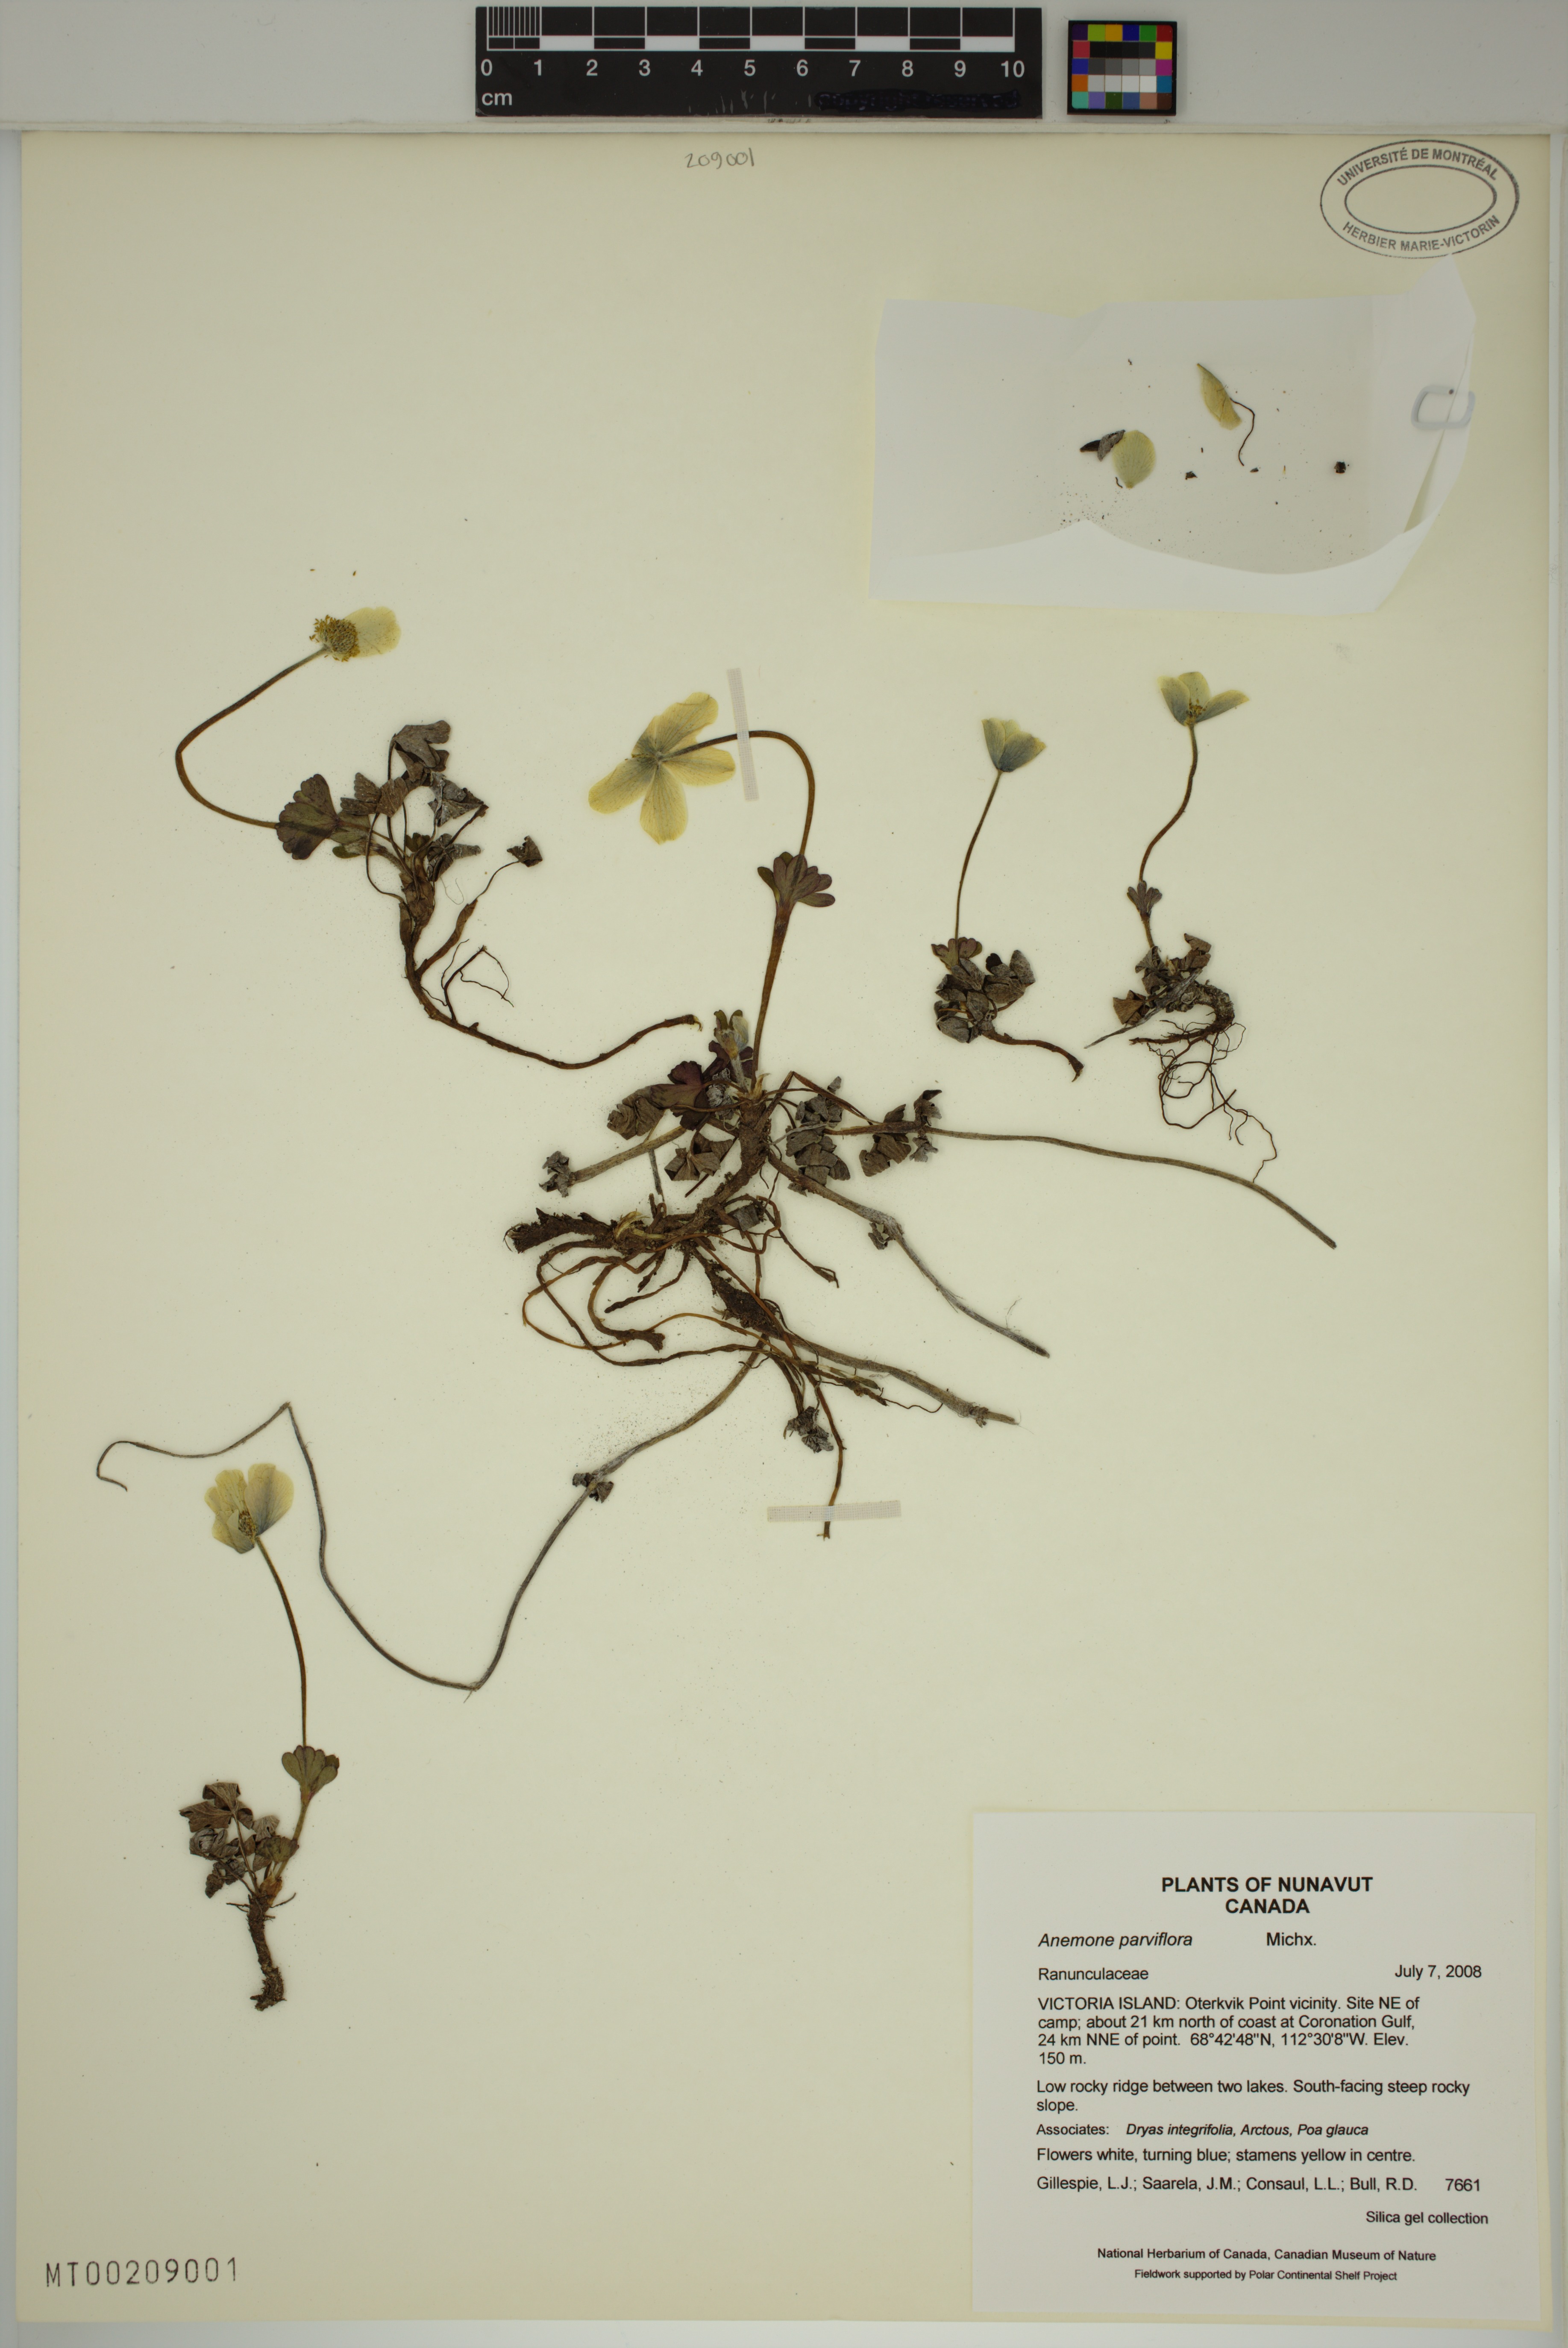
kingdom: Plantae
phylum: Tracheophyta
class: Magnoliopsida
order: Ranunculales
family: Ranunculaceae
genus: Anemone
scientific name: Anemone parviflora
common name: Northern anemone
